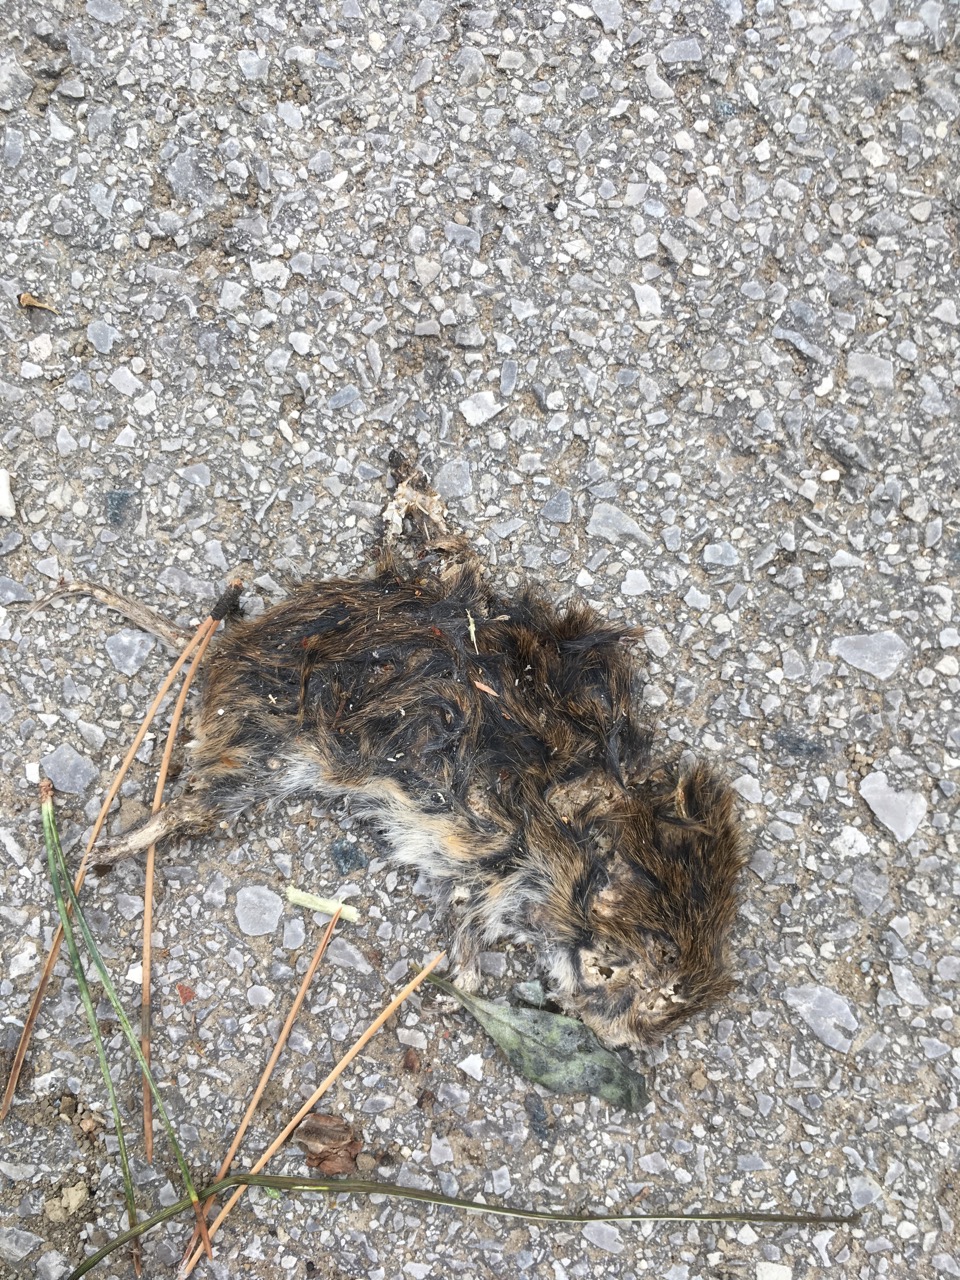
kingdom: Animalia
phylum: Chordata
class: Mammalia
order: Rodentia
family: Cricetidae
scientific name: Cricetidae
